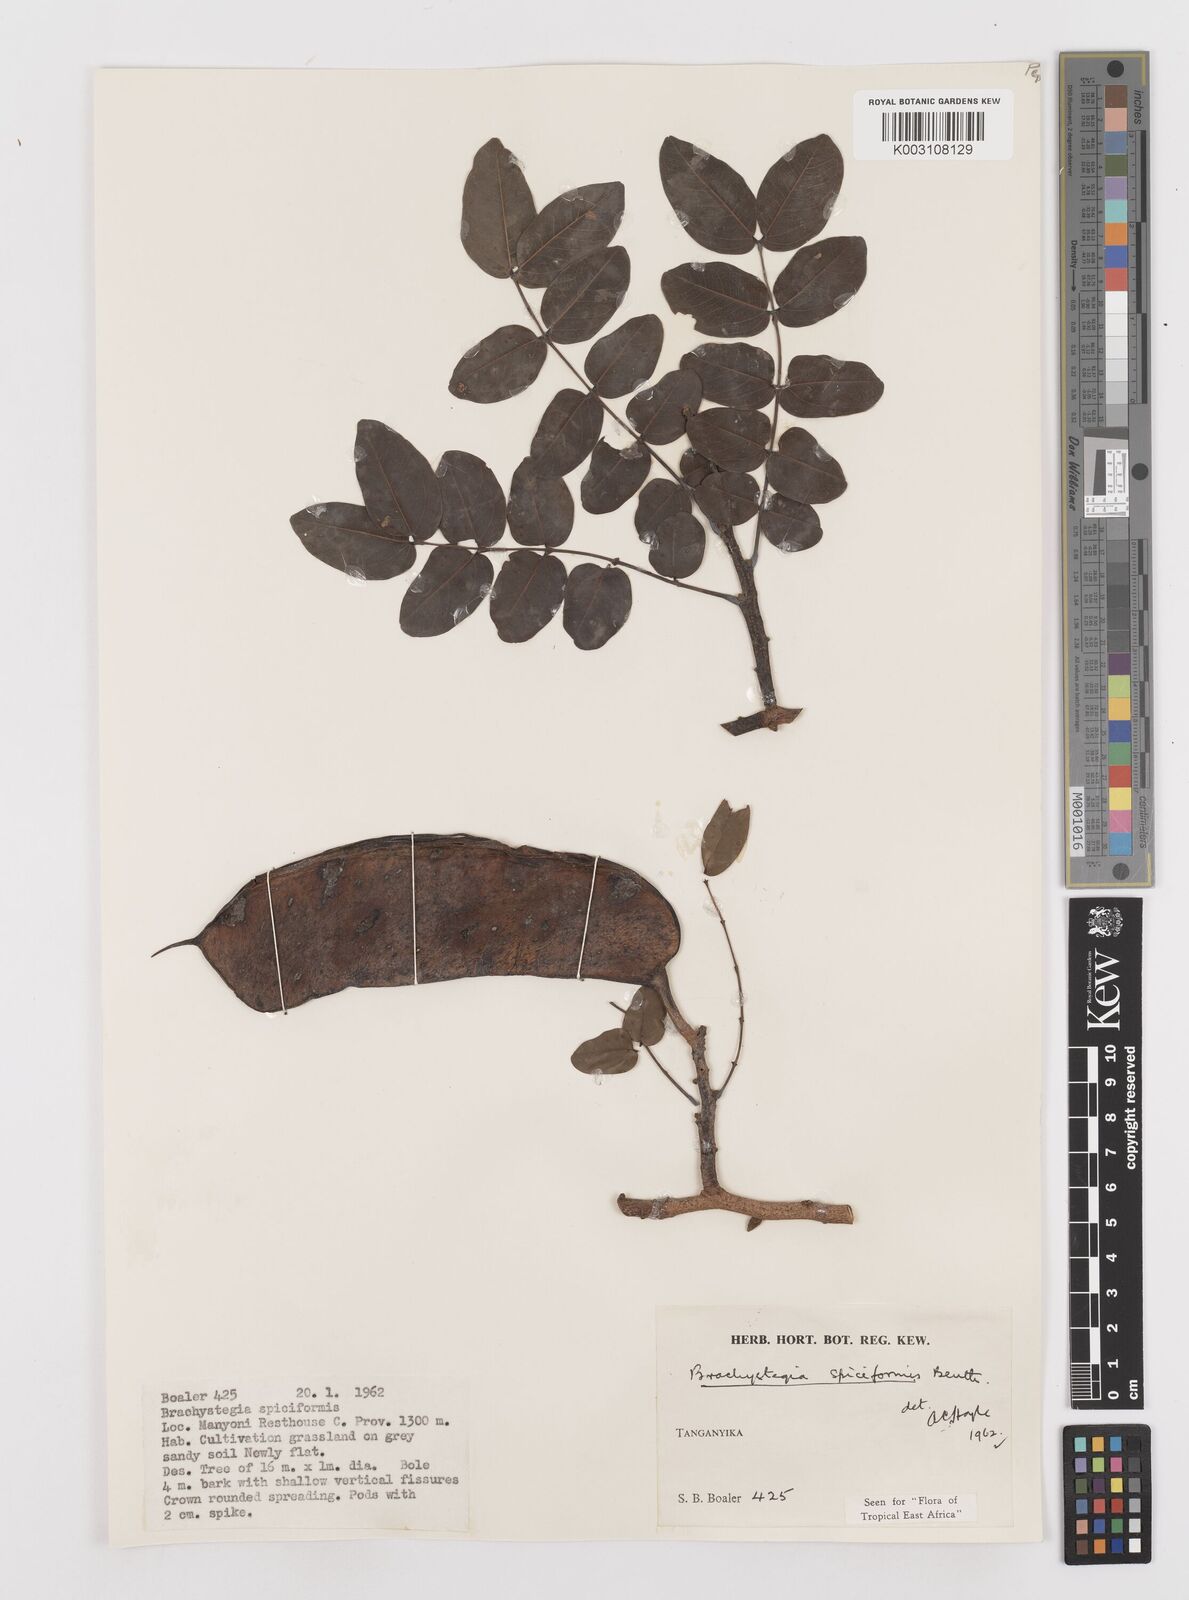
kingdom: Plantae
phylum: Tracheophyta
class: Magnoliopsida
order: Fabales
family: Fabaceae
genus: Brachystegia
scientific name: Brachystegia spiciformis
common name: Zebrawood
